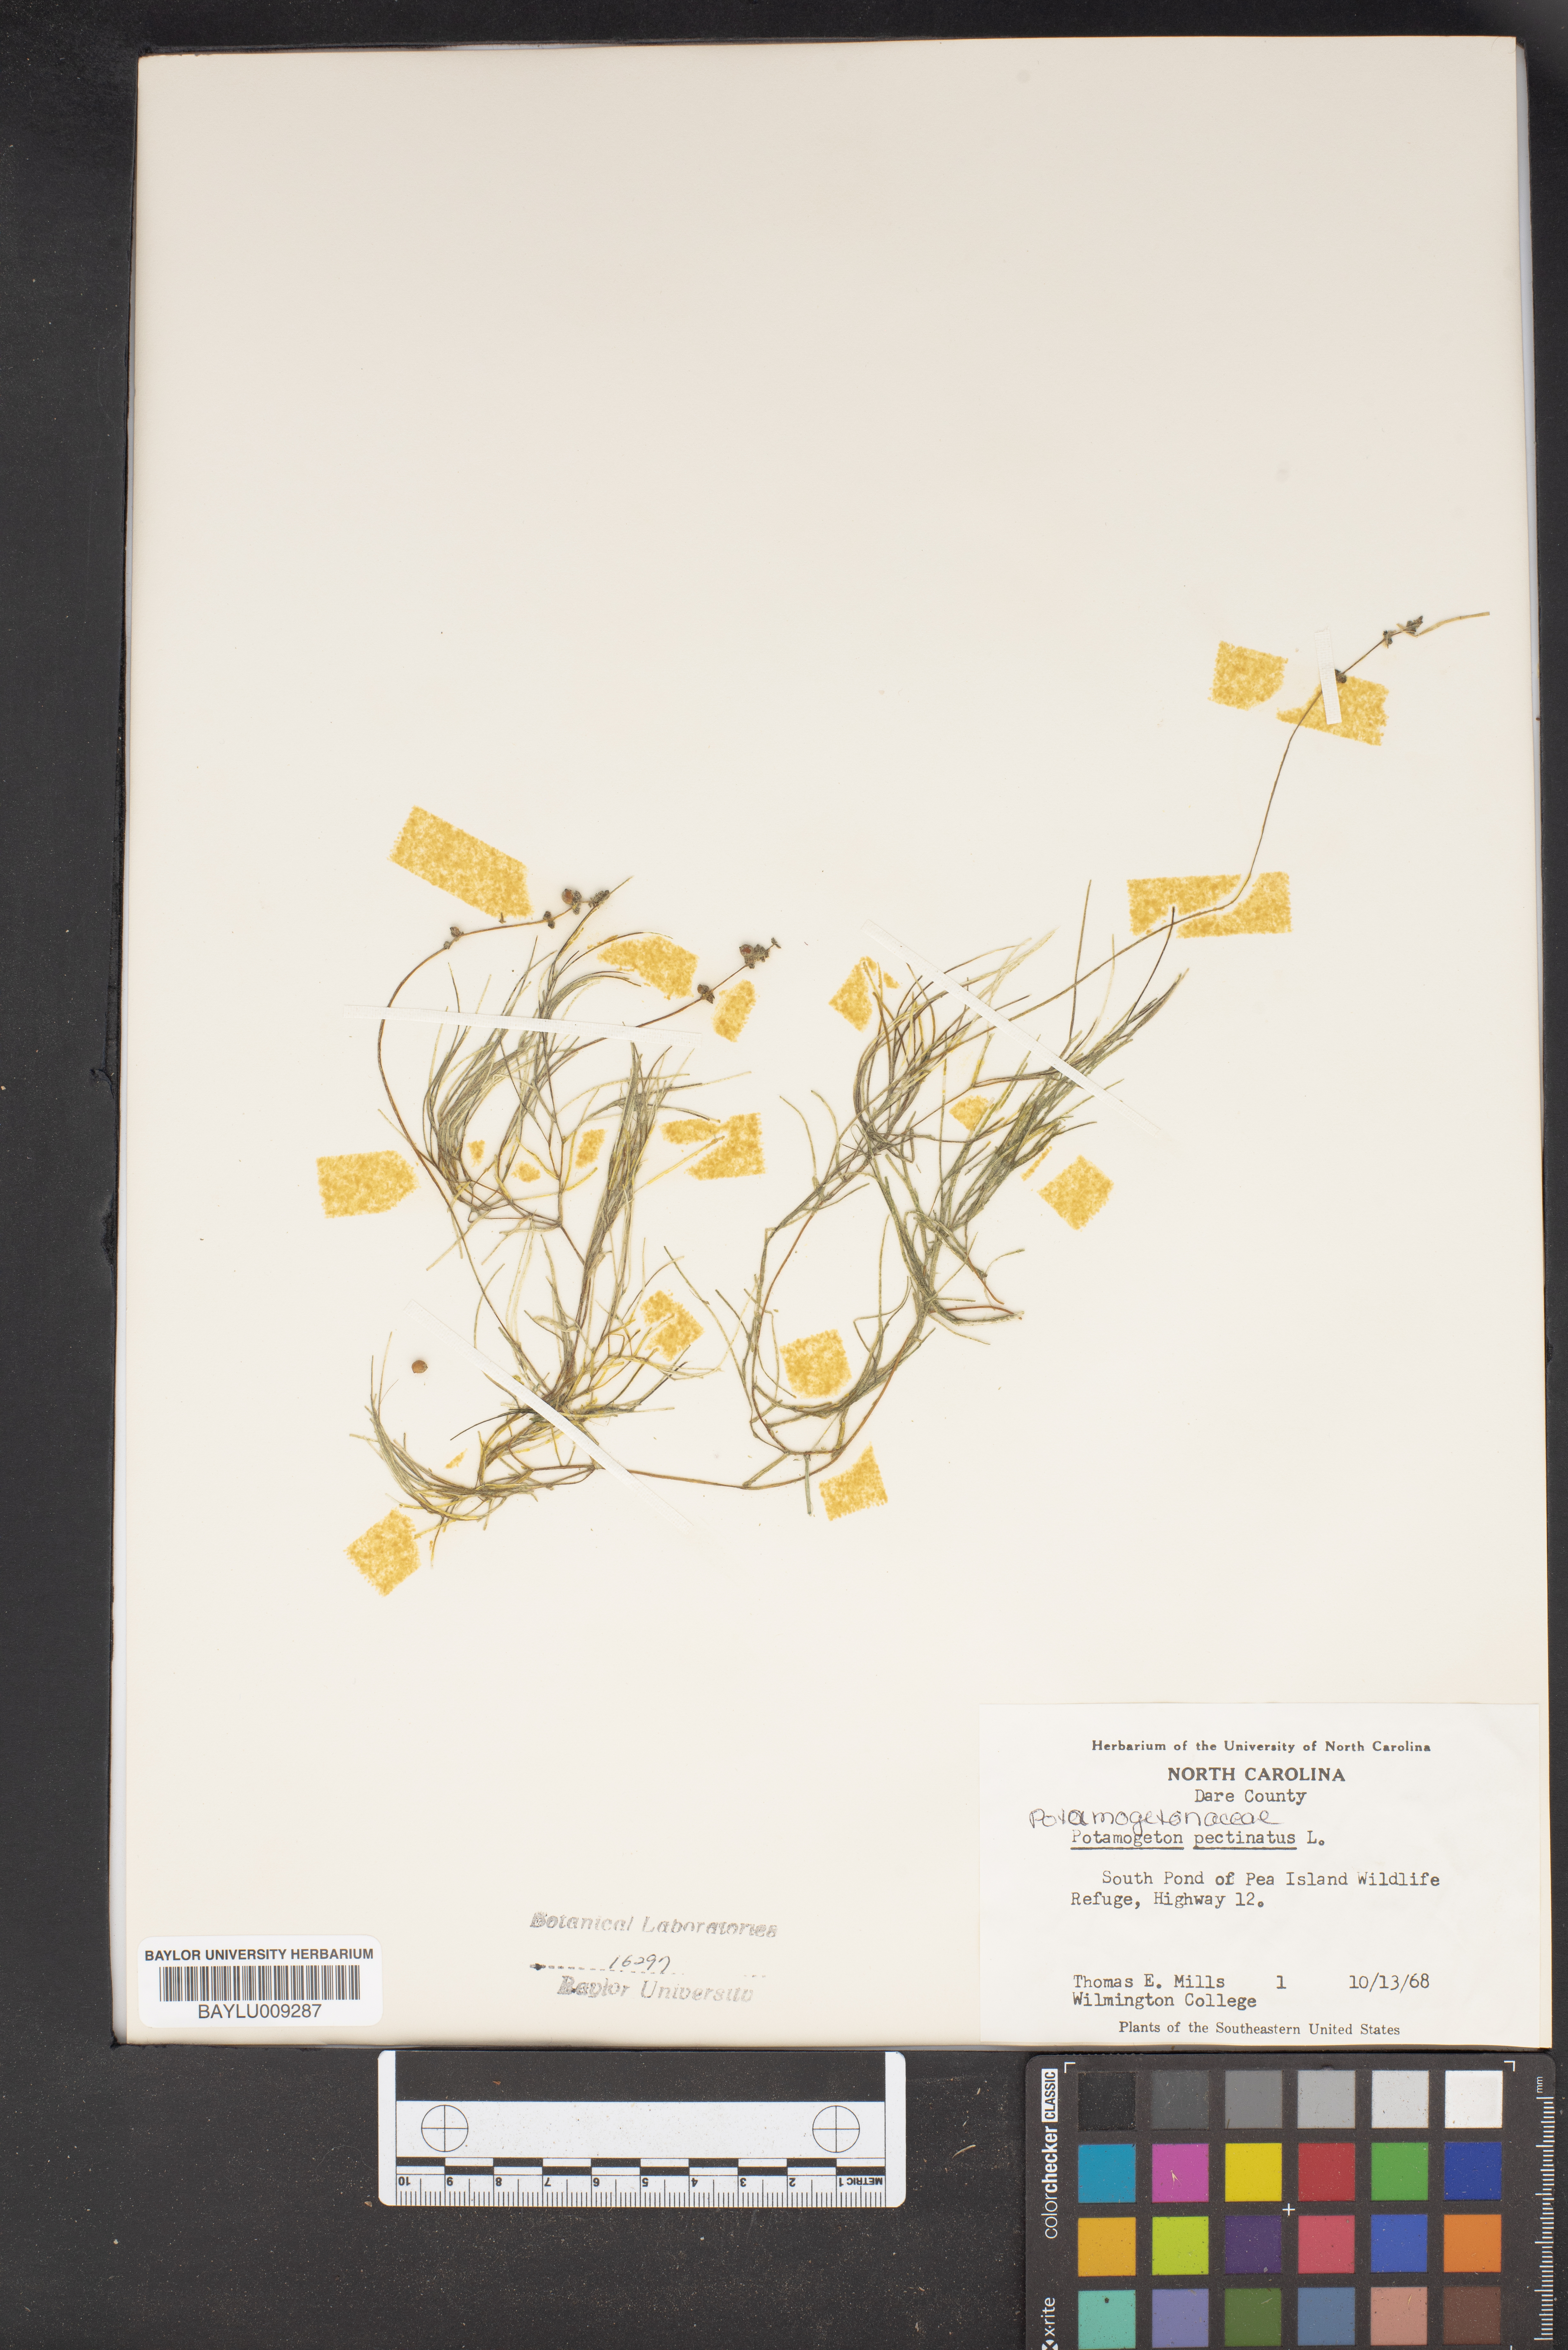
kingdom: Plantae
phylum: Tracheophyta
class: Liliopsida
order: Alismatales
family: Potamogetonaceae
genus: Stuckenia
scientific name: Stuckenia pectinata
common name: Sago pondweed
